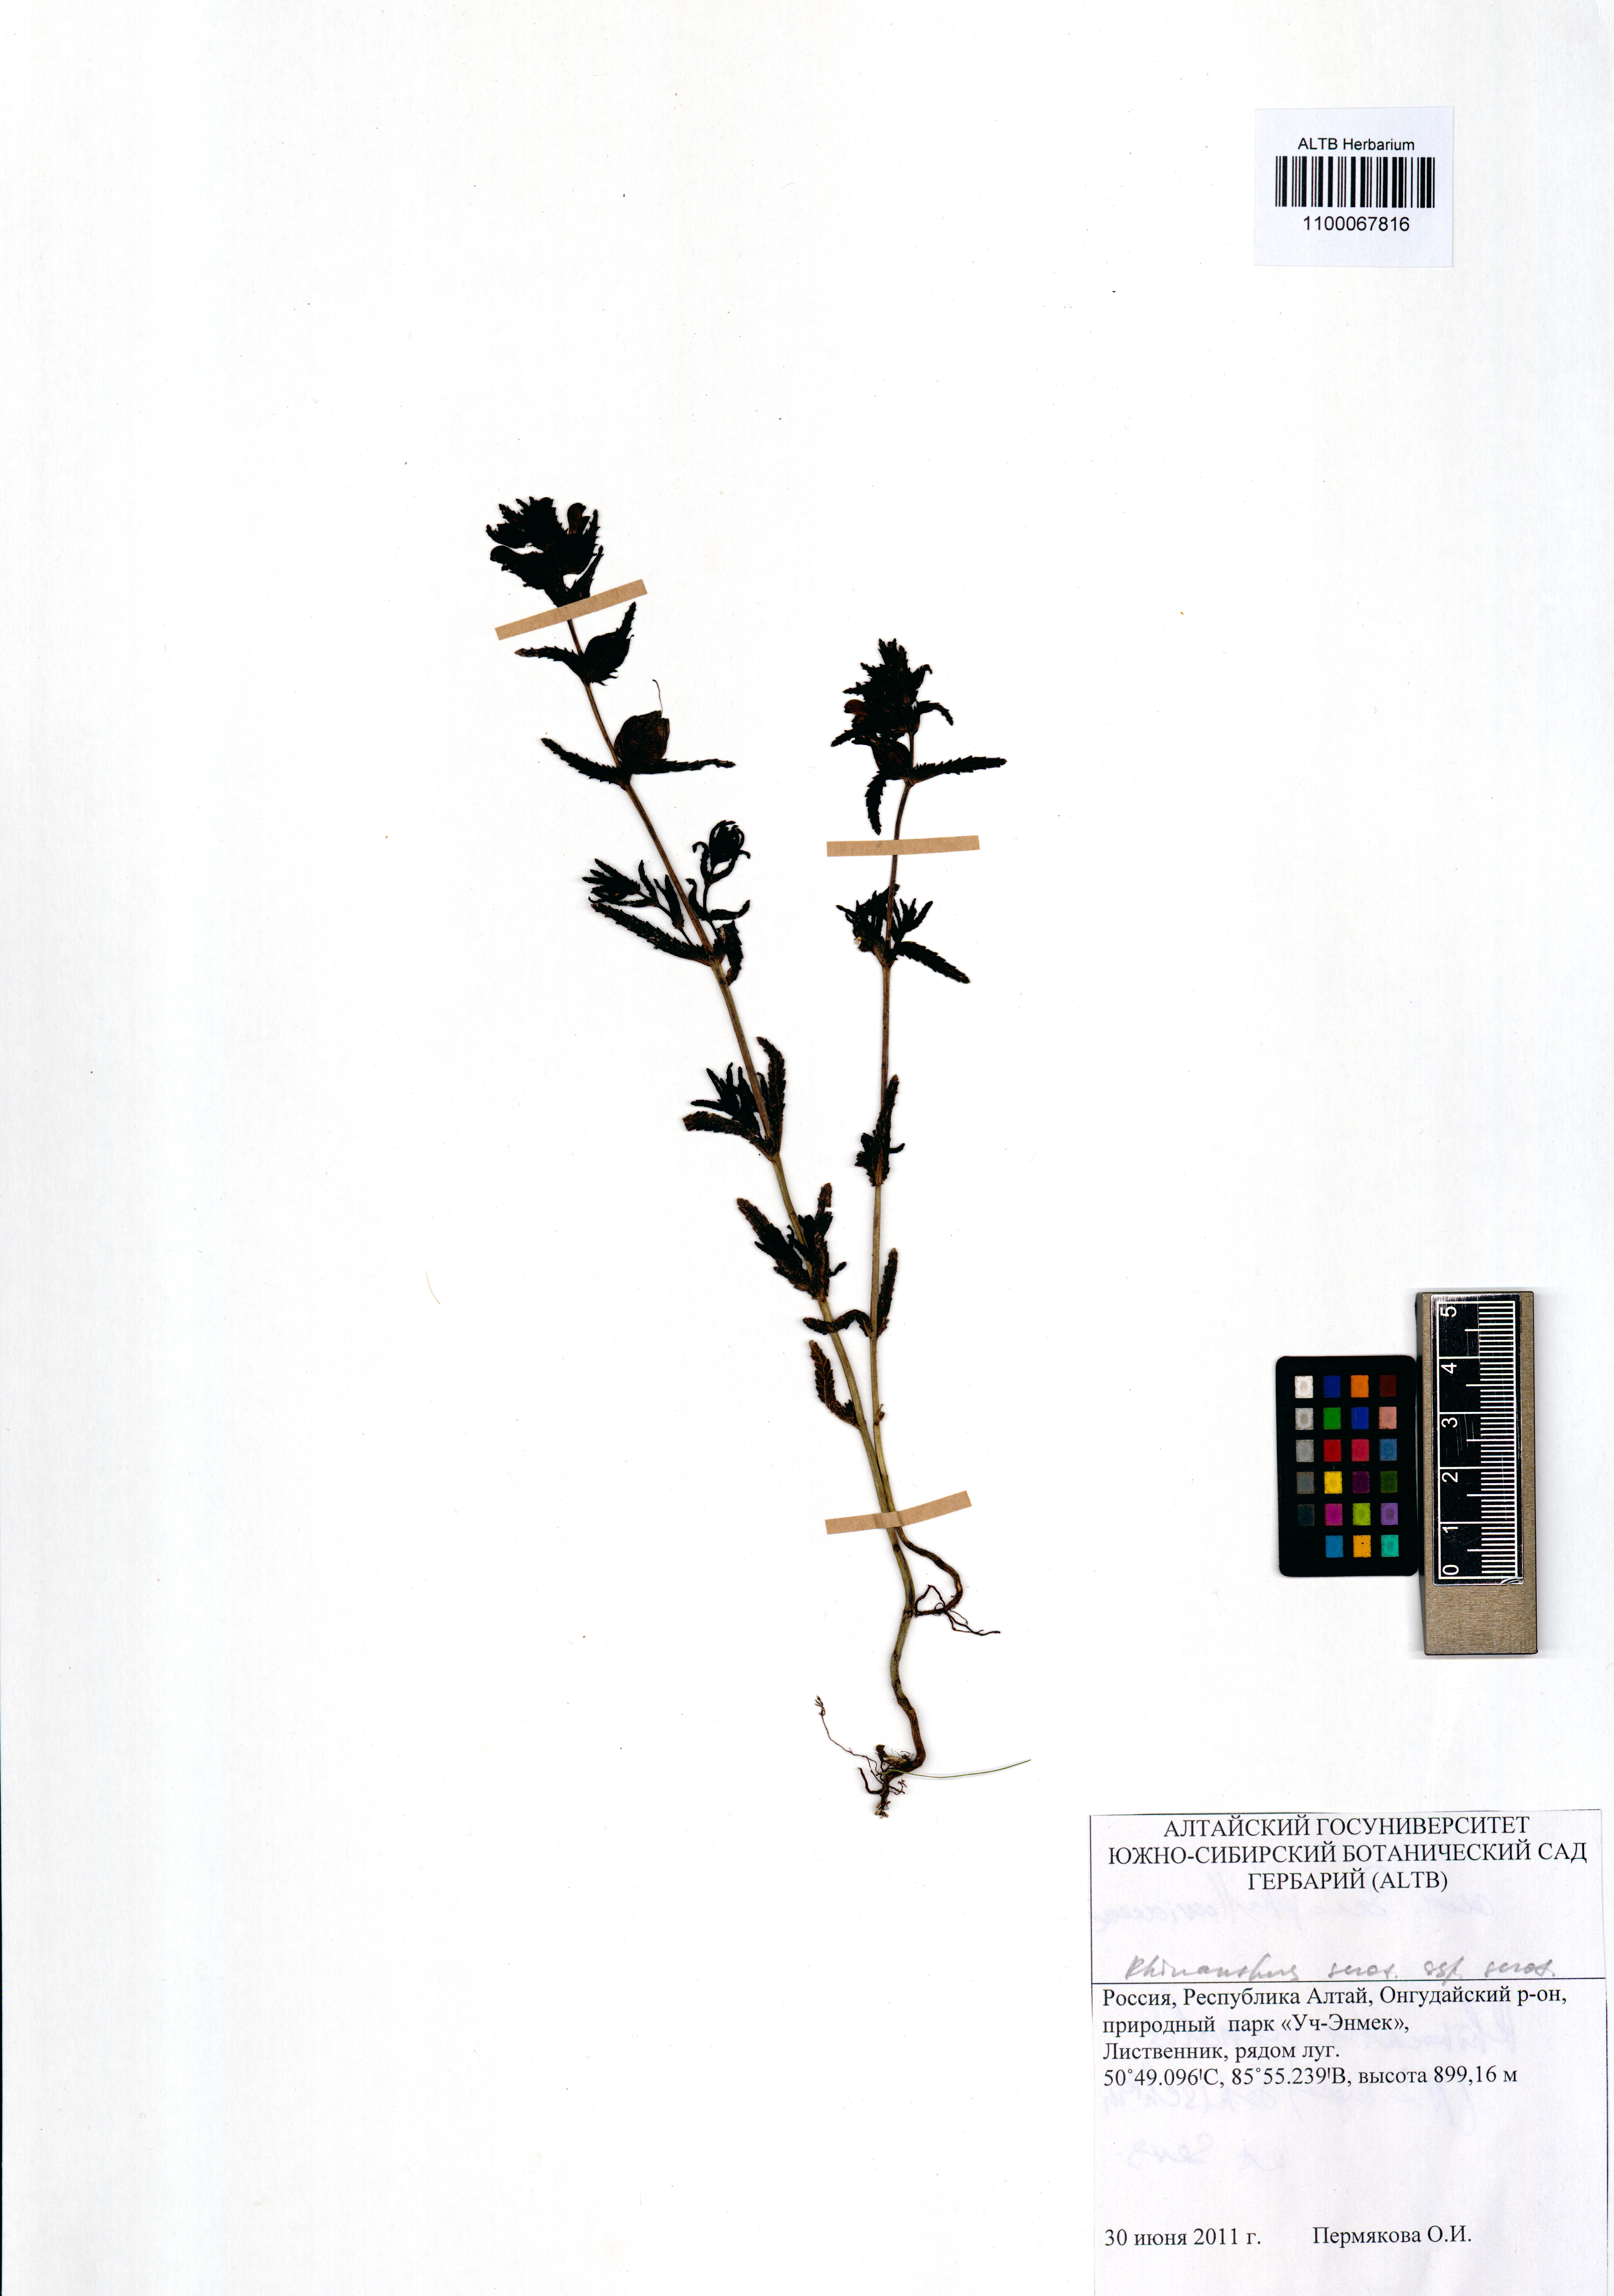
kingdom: Plantae
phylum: Tracheophyta
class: Magnoliopsida
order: Lamiales
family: Orobanchaceae
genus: Rhinanthus
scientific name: Rhinanthus serotinus
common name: Late-flowering yellow rattle
